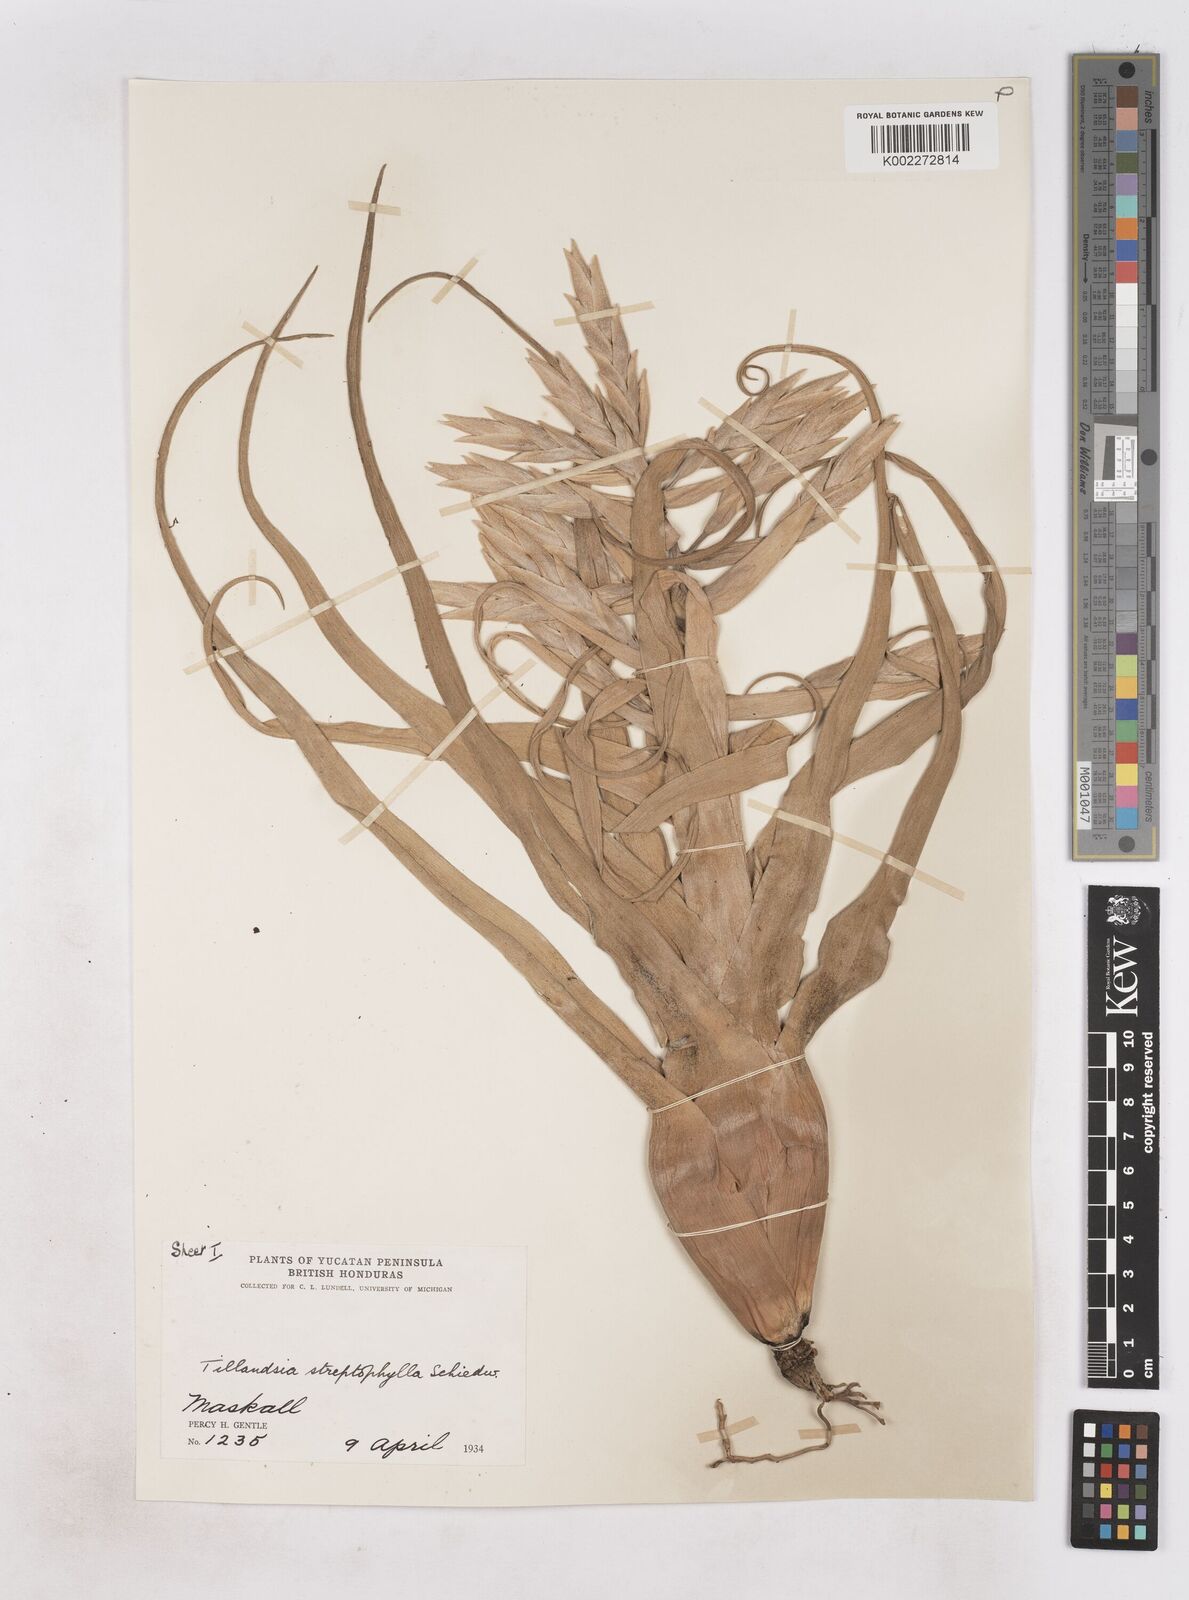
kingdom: Plantae
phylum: Tracheophyta
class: Liliopsida
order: Poales
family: Bromeliaceae
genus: Tillandsia
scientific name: Tillandsia streptophylla
